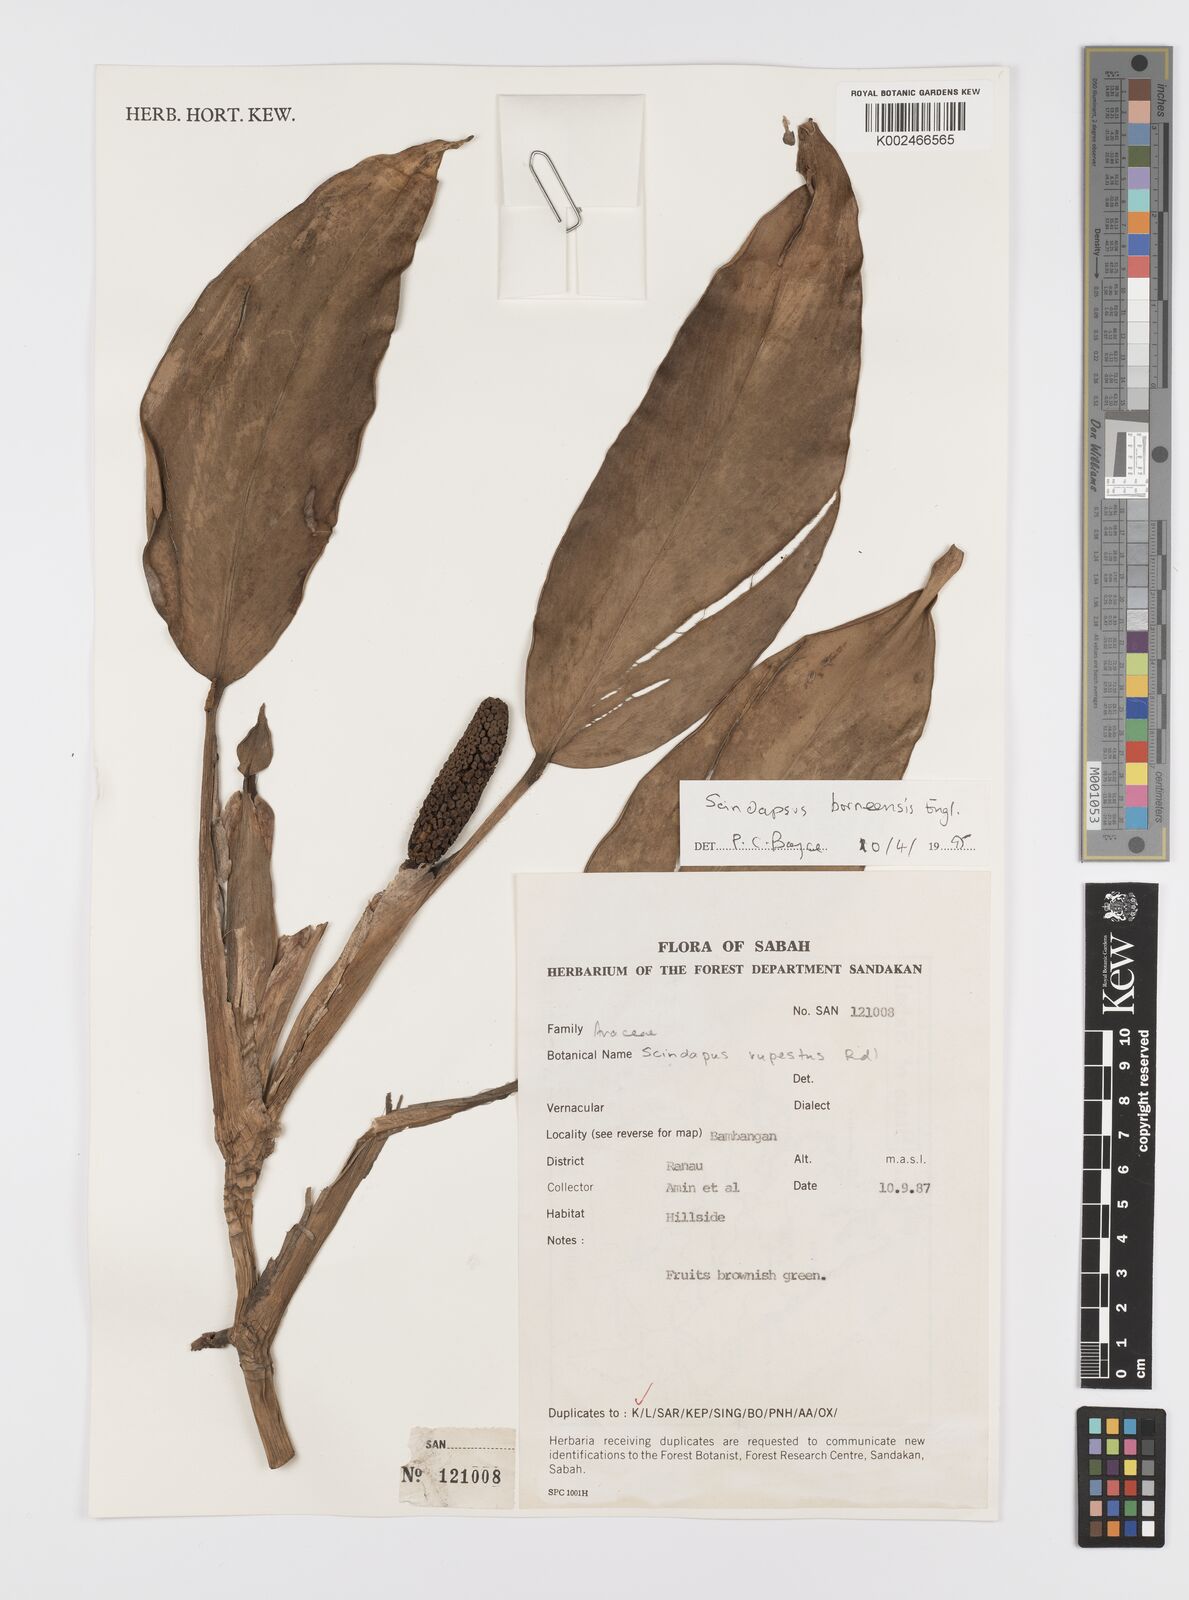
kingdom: Plantae
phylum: Tracheophyta
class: Liliopsida
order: Alismatales
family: Araceae
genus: Scindapsus
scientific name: Scindapsus coriaceus
